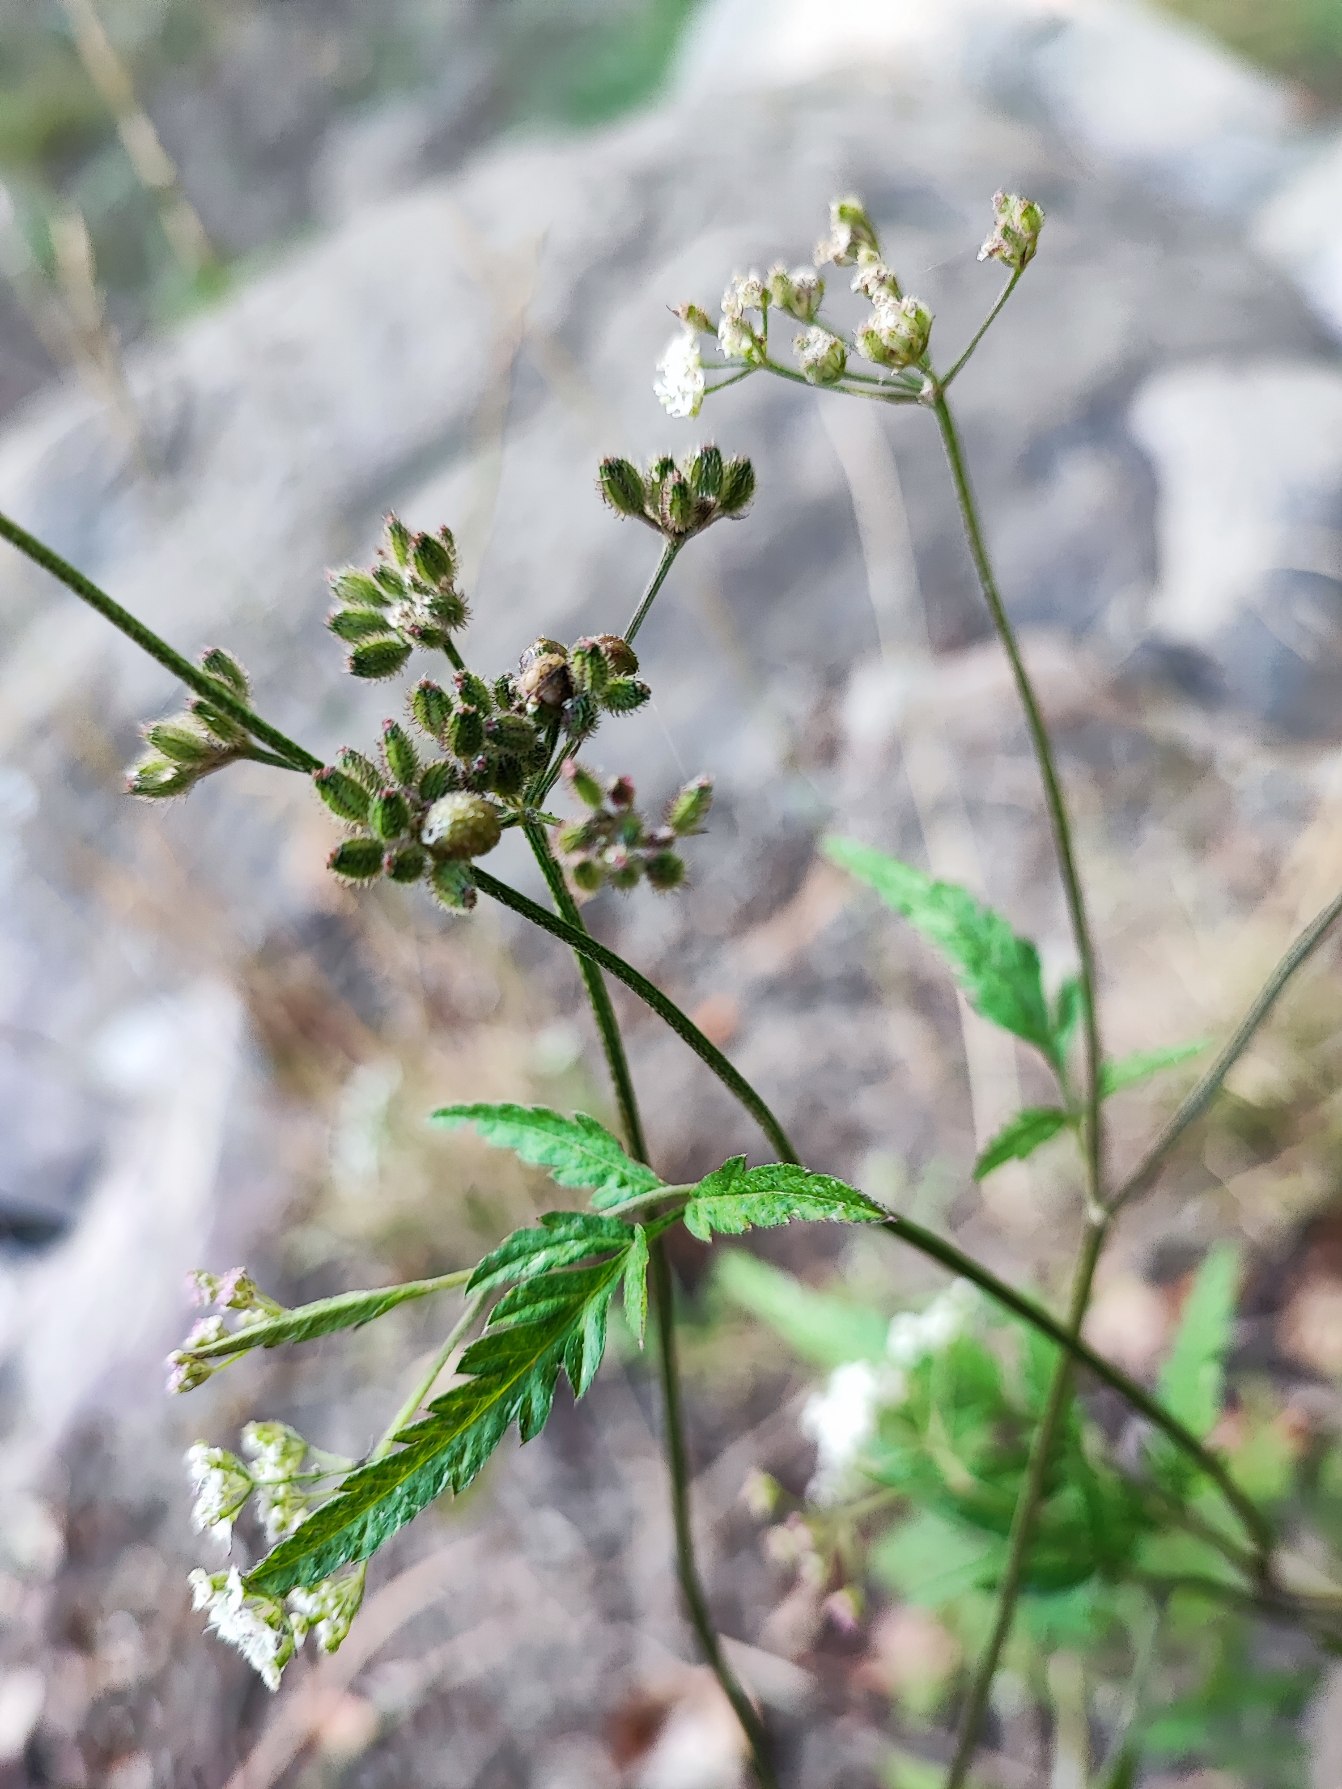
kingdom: Animalia
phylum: Arthropoda
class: Insecta
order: Diptera
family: Cecidomyiidae
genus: Kiefferia
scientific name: Kiefferia pericarpiicola
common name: Gulerodsgalmyg
